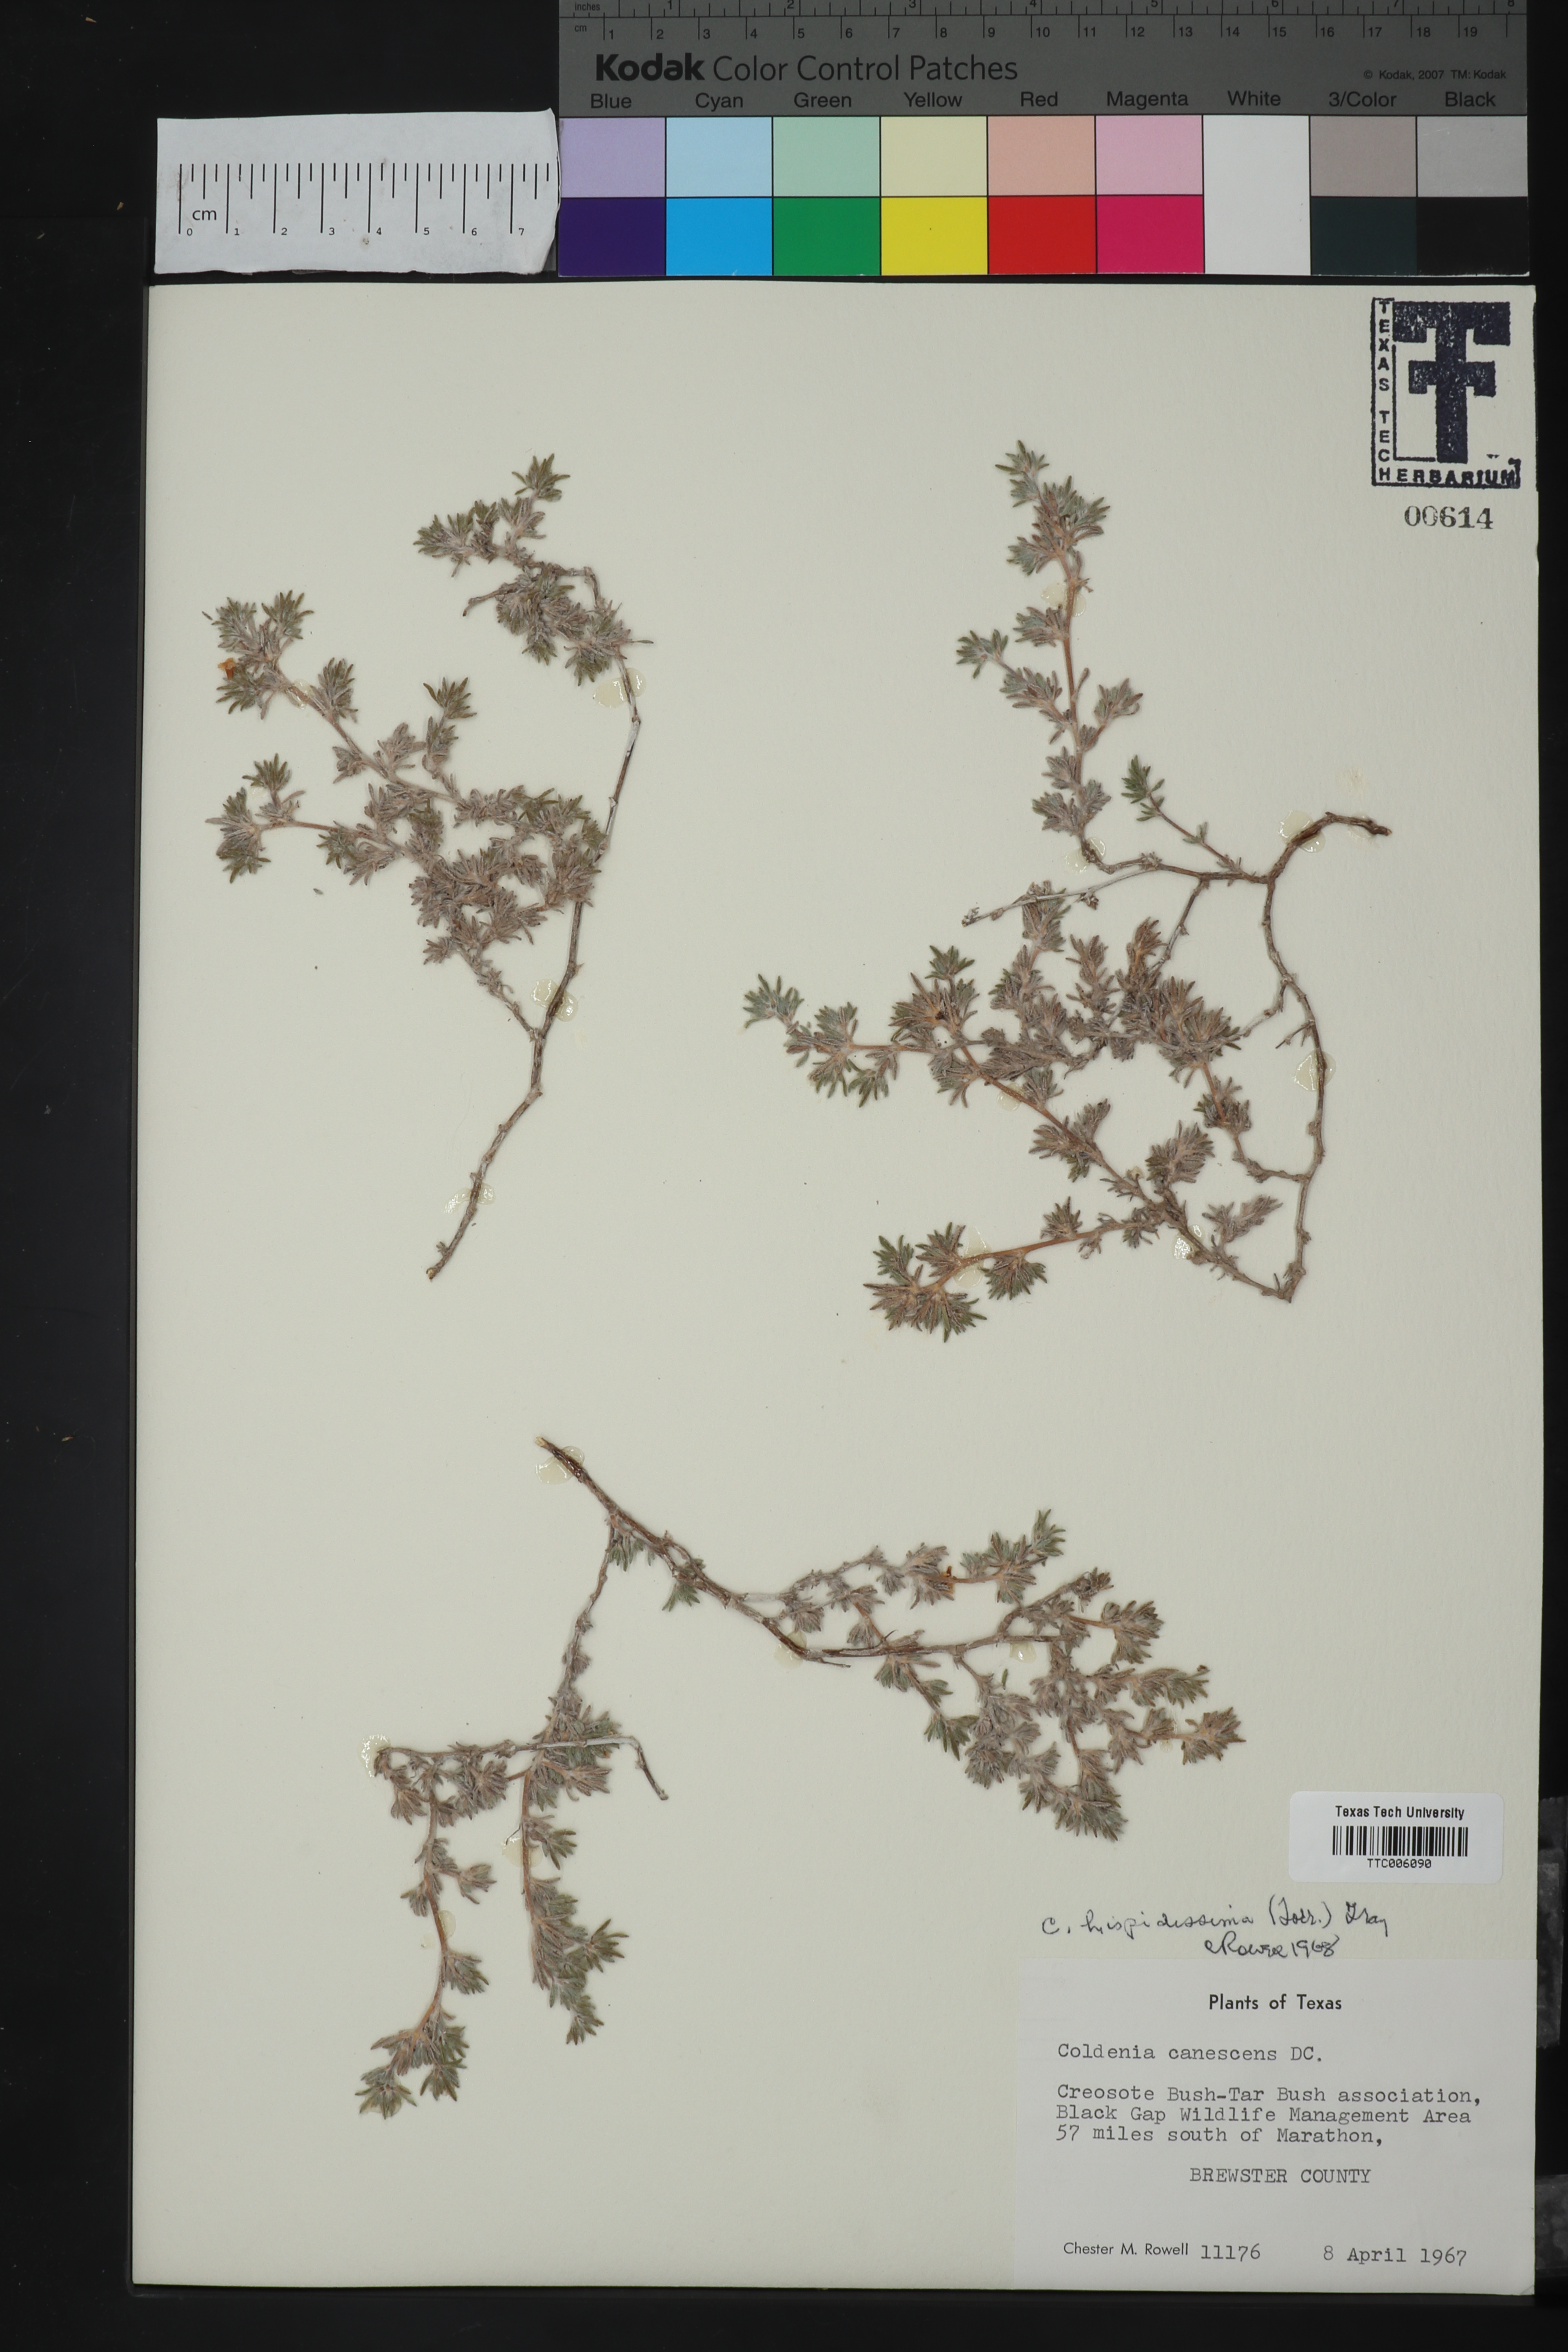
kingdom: Plantae
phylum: Tracheophyta
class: Magnoliopsida
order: Boraginales
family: Ehretiaceae
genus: Tiquilia
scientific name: Tiquilia hispidissima
